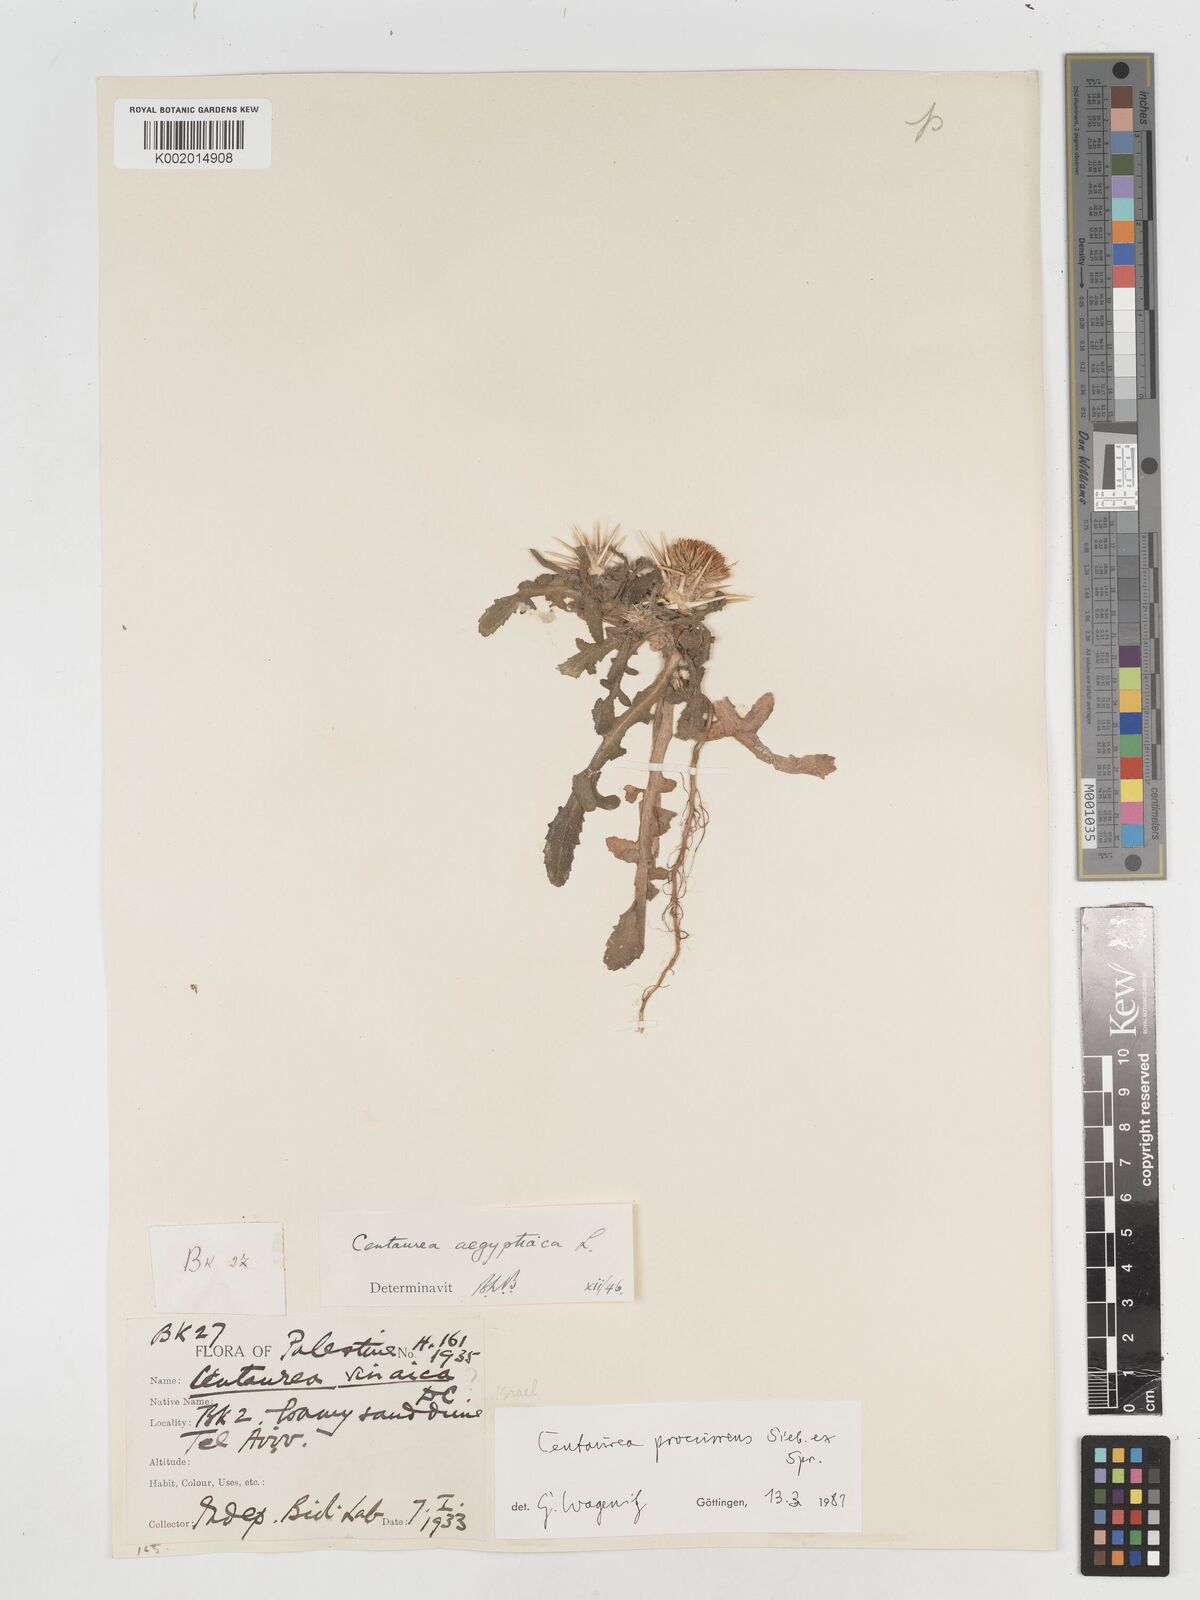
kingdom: Plantae
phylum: Tracheophyta
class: Magnoliopsida
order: Asterales
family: Asteraceae
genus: Centaurea
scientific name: Centaurea procurrens
